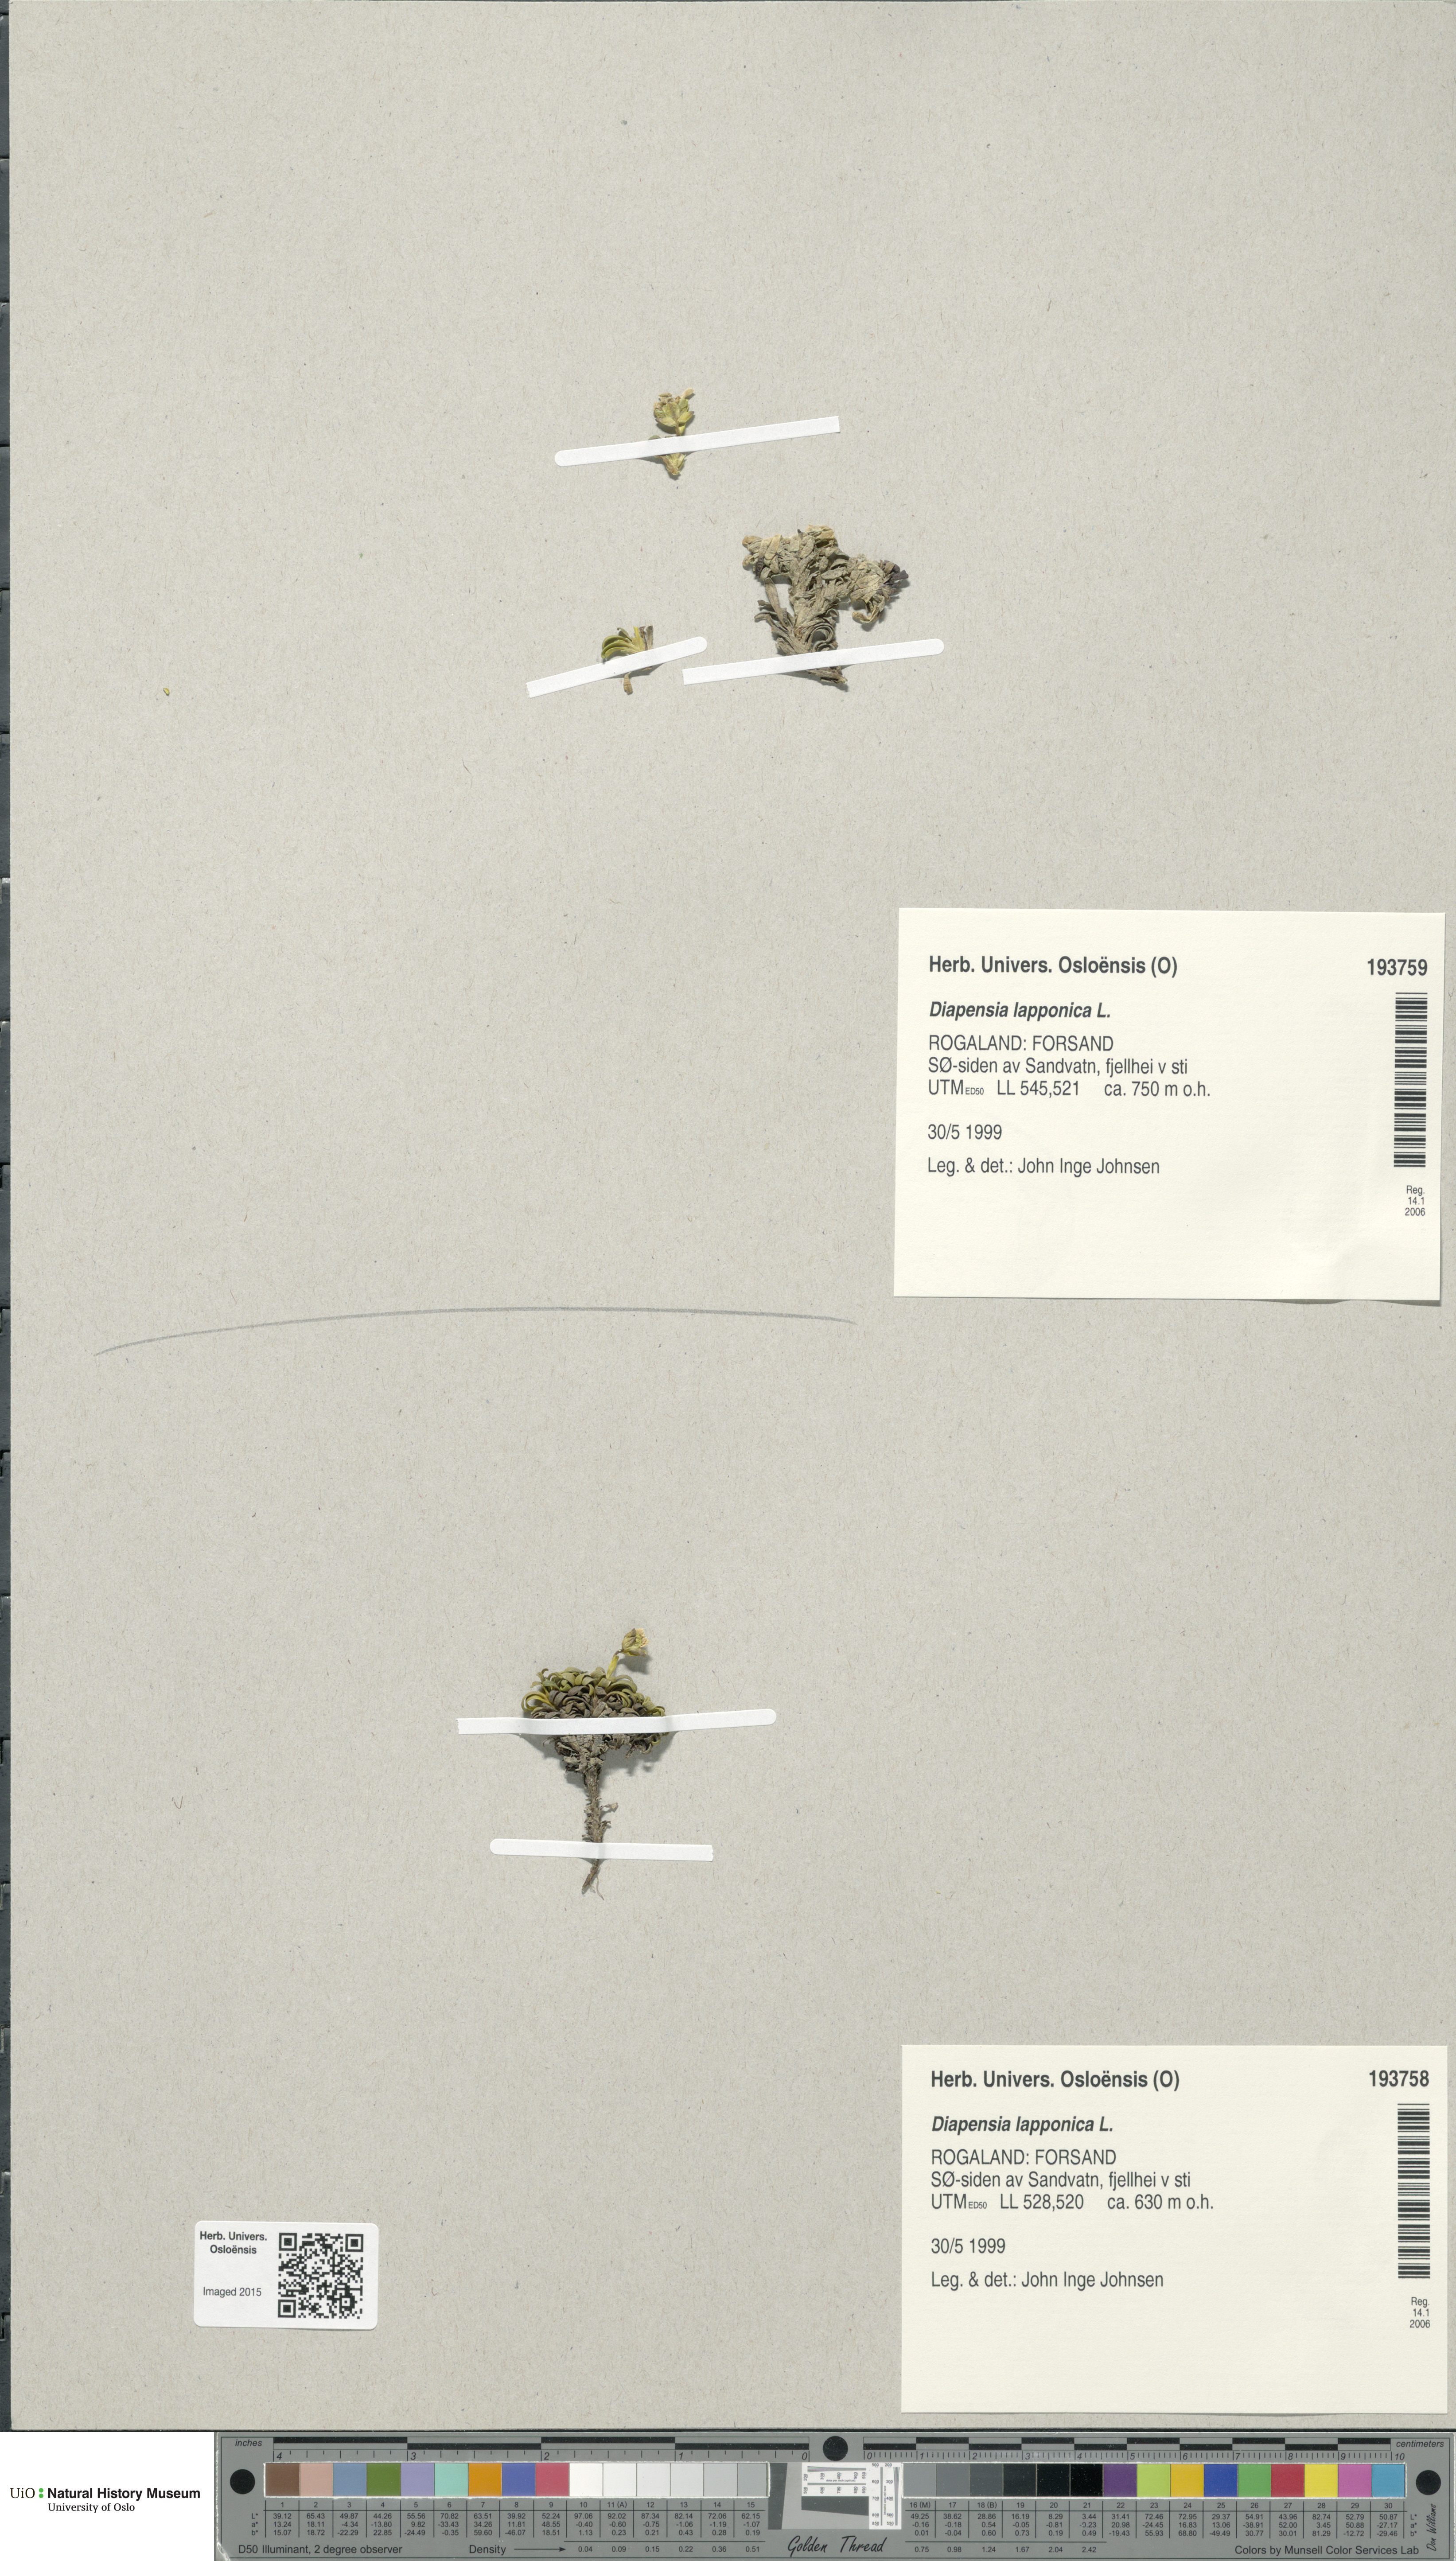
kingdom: Plantae
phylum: Tracheophyta
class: Magnoliopsida
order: Ericales
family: Diapensiaceae
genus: Diapensia
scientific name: Diapensia lapponica
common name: Diapensia
